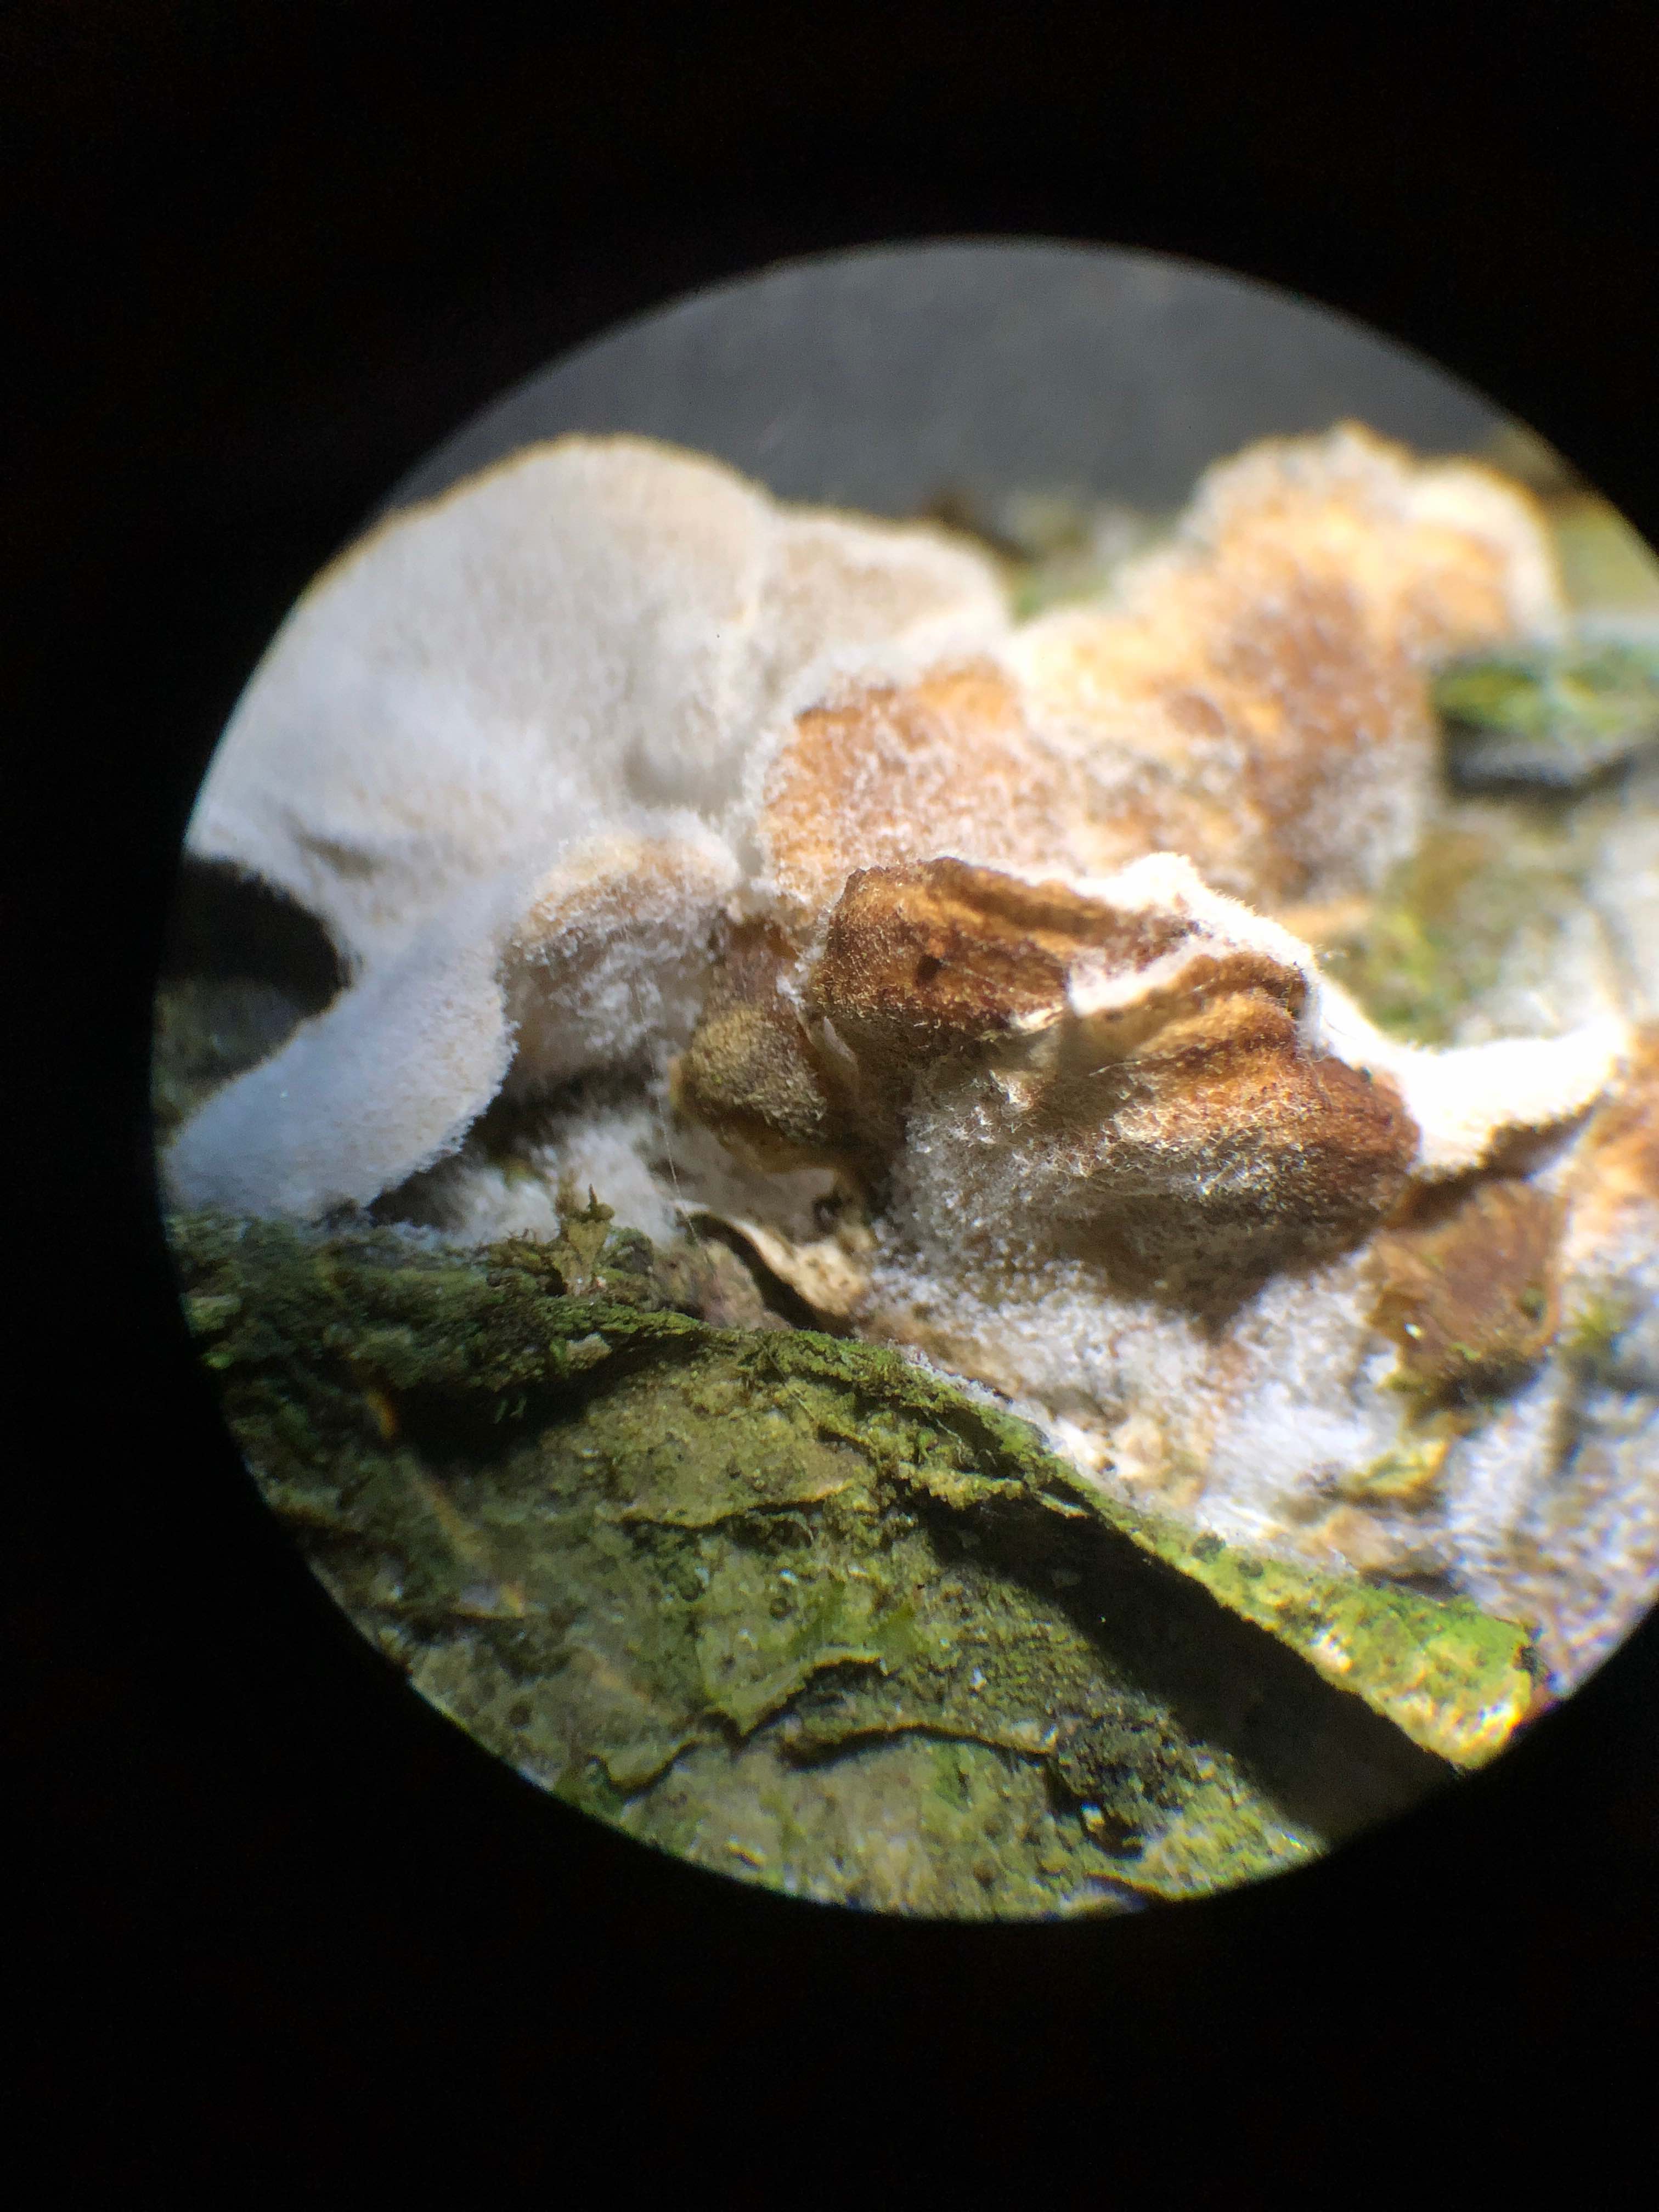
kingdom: Fungi
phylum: Ascomycota
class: Sordariomycetes
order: Hypocreales
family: Hypocreaceae
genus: Hypomyces
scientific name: Hypomyces rosellus
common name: rosa snylteskorpe
